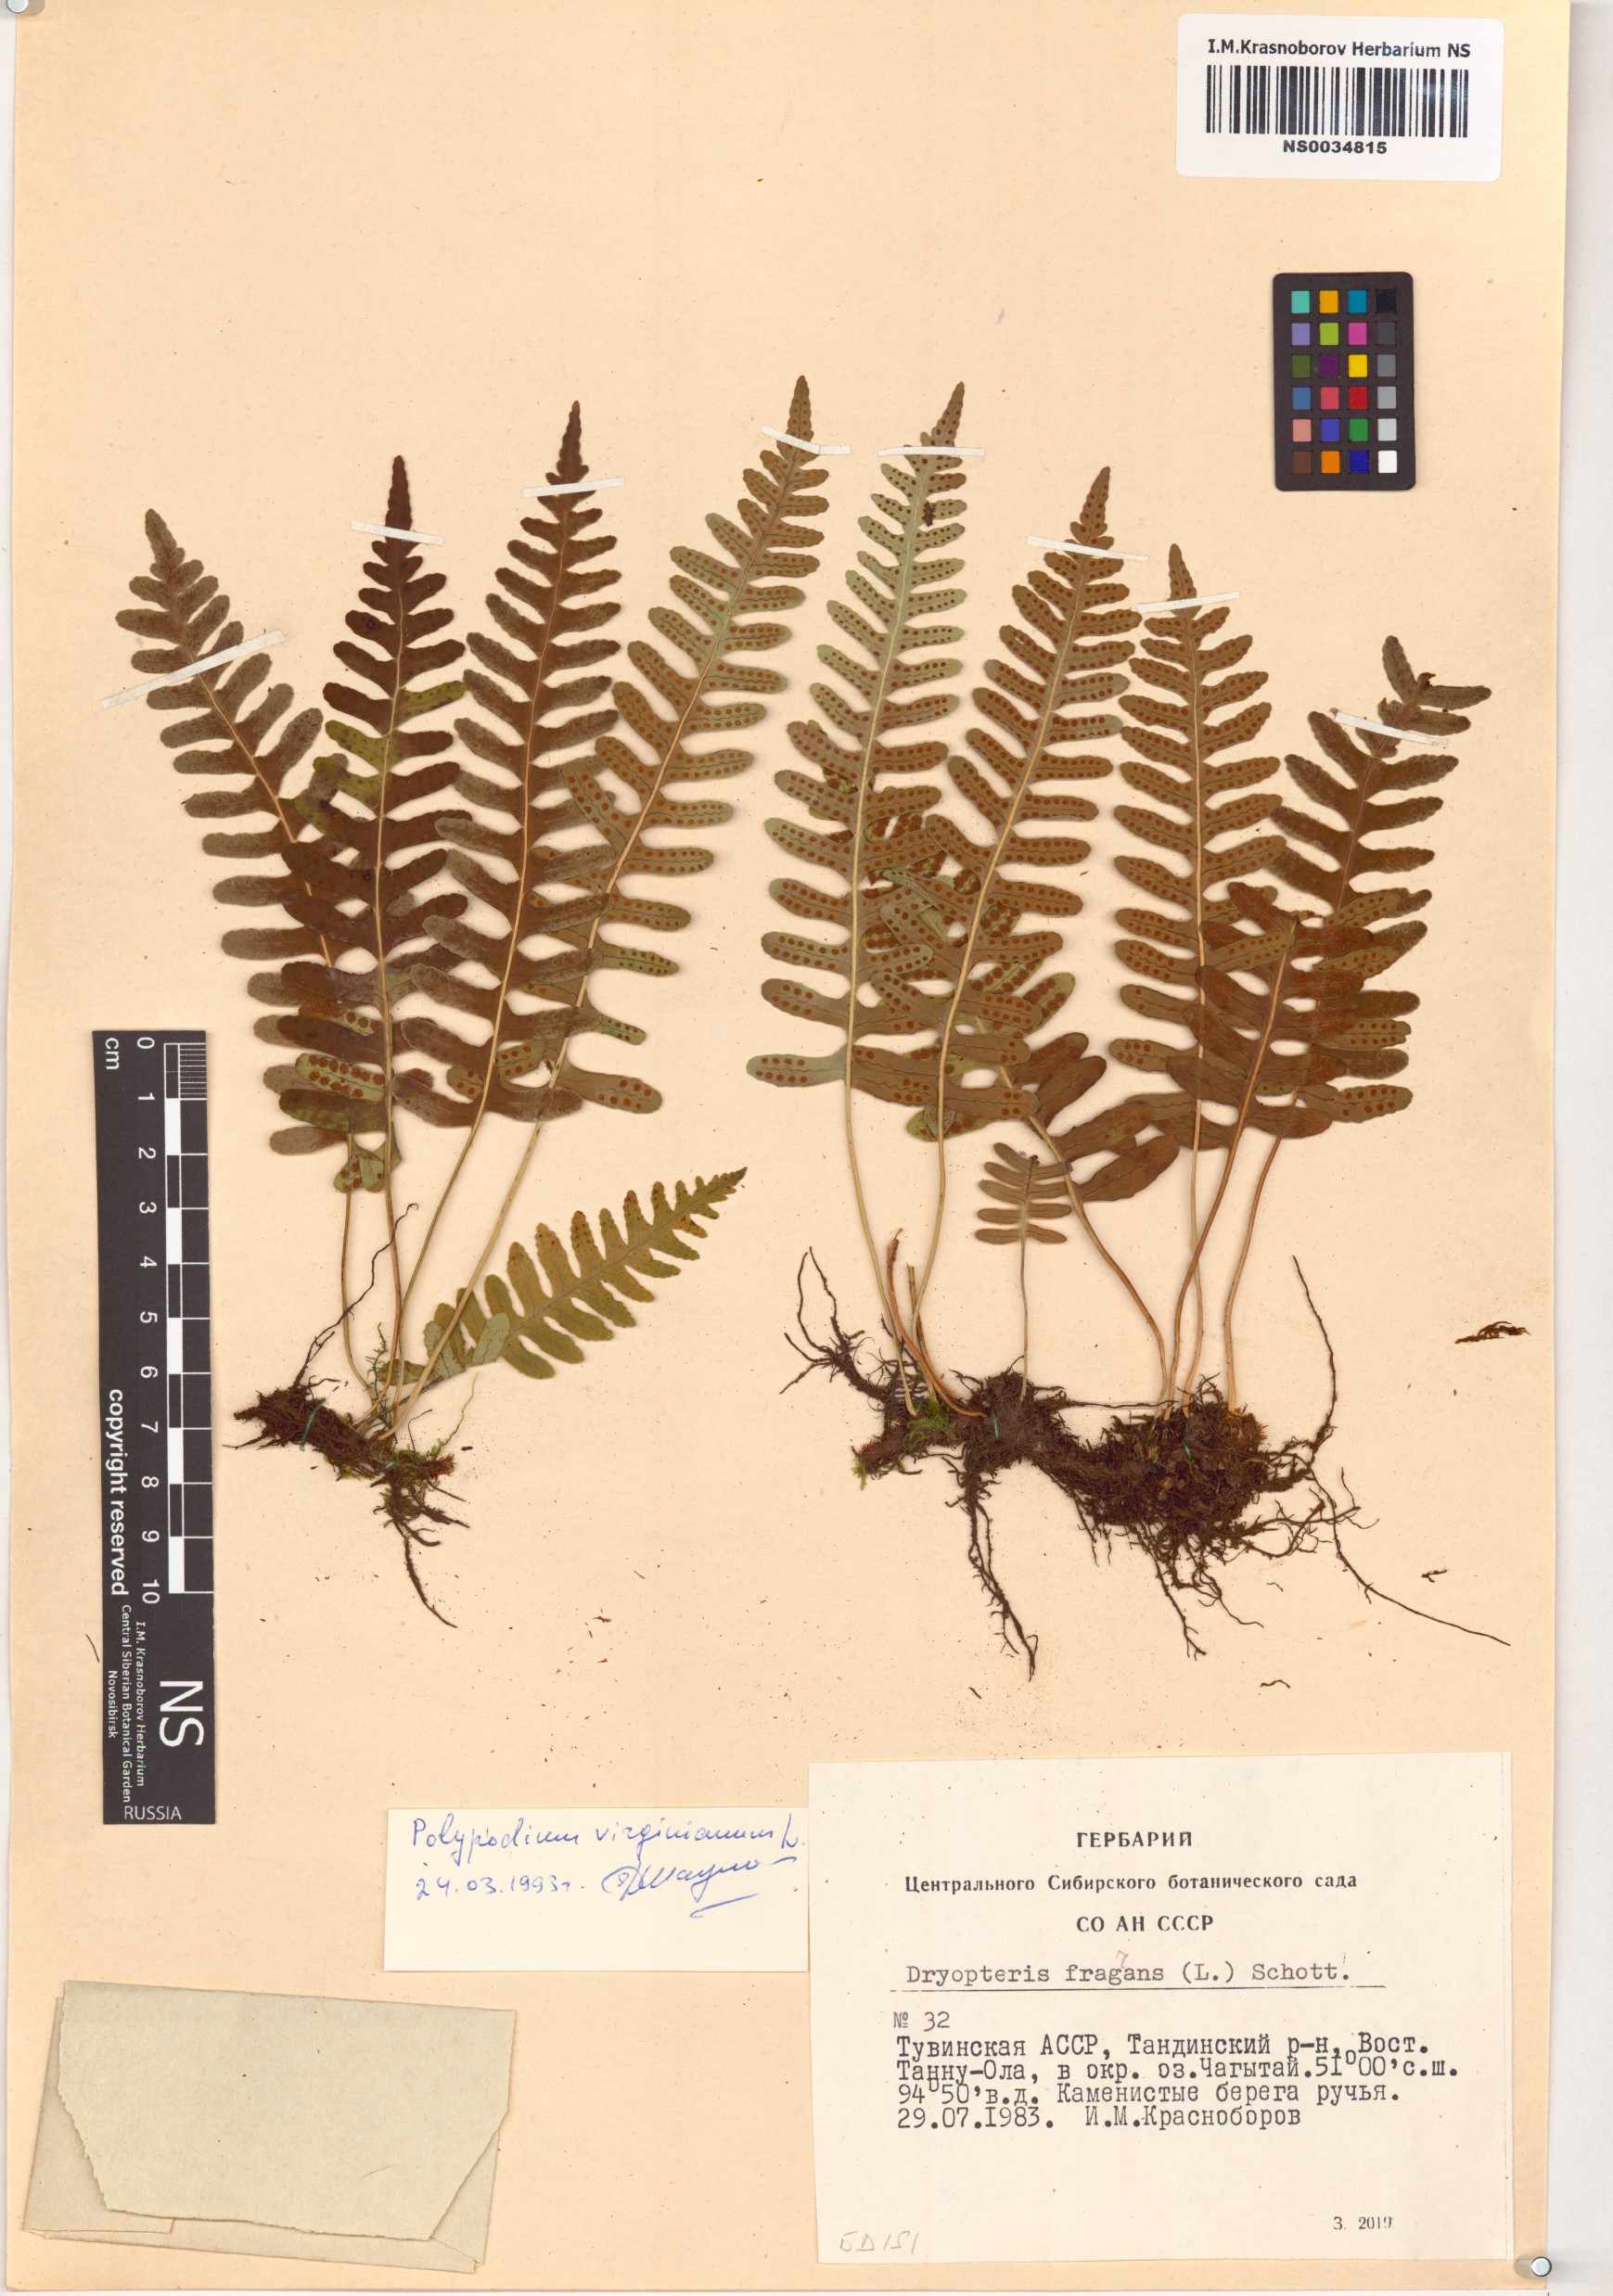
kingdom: Plantae
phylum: Tracheophyta
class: Polypodiopsida
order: Polypodiales
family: Polypodiaceae
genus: Polypodium
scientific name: Polypodium virginianum
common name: American wall fern
